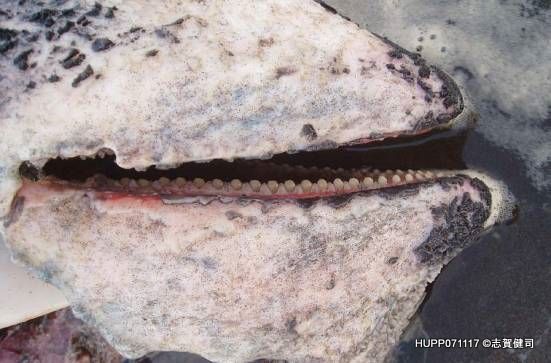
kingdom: Animalia
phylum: Chordata
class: Mammalia
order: Cetacea
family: Balaenopteridae
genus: Balaenoptera
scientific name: Balaenoptera acutorostrata
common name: Minke whale
